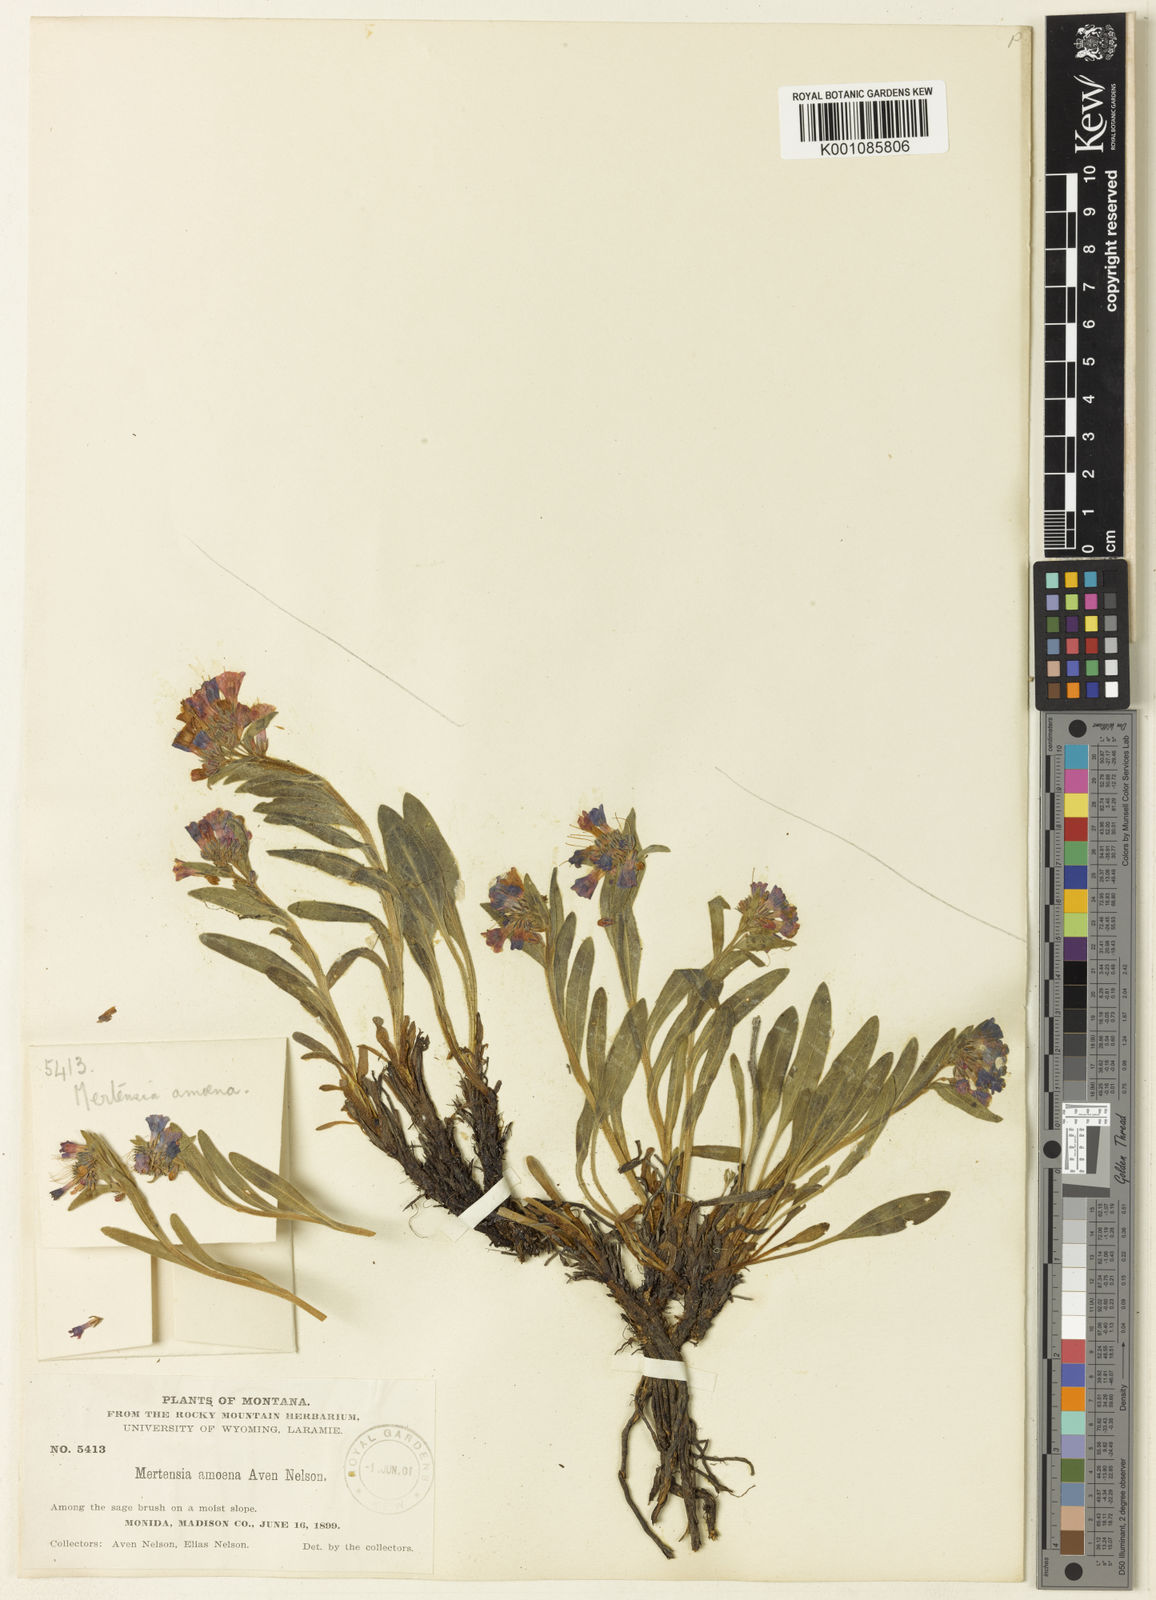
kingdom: Plantae
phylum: Tracheophyta
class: Magnoliopsida
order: Boraginales
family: Boraginaceae
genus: Mertensia
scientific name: Mertensia oblongifolia
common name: Sagebrush bluebells
